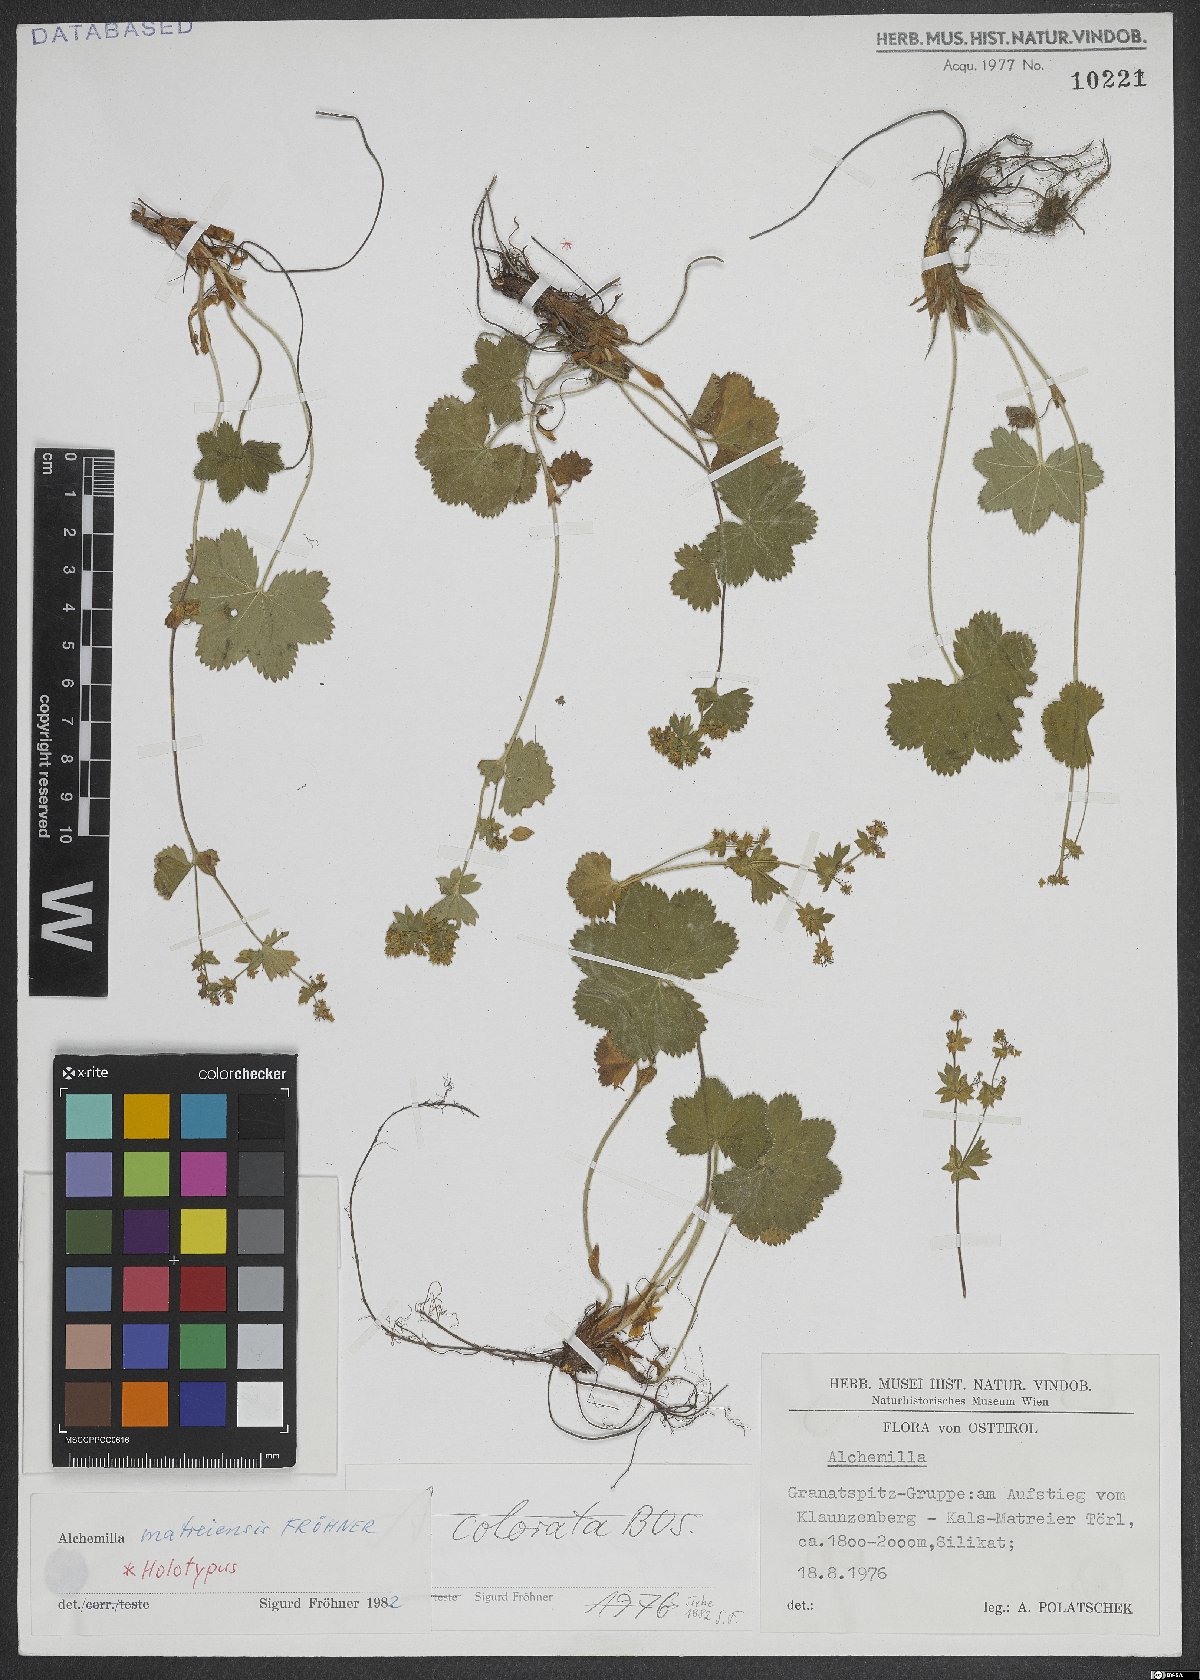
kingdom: Plantae
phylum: Tracheophyta
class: Magnoliopsida
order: Rosales
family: Rosaceae
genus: Alchemilla
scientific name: Alchemilla matreiensis
